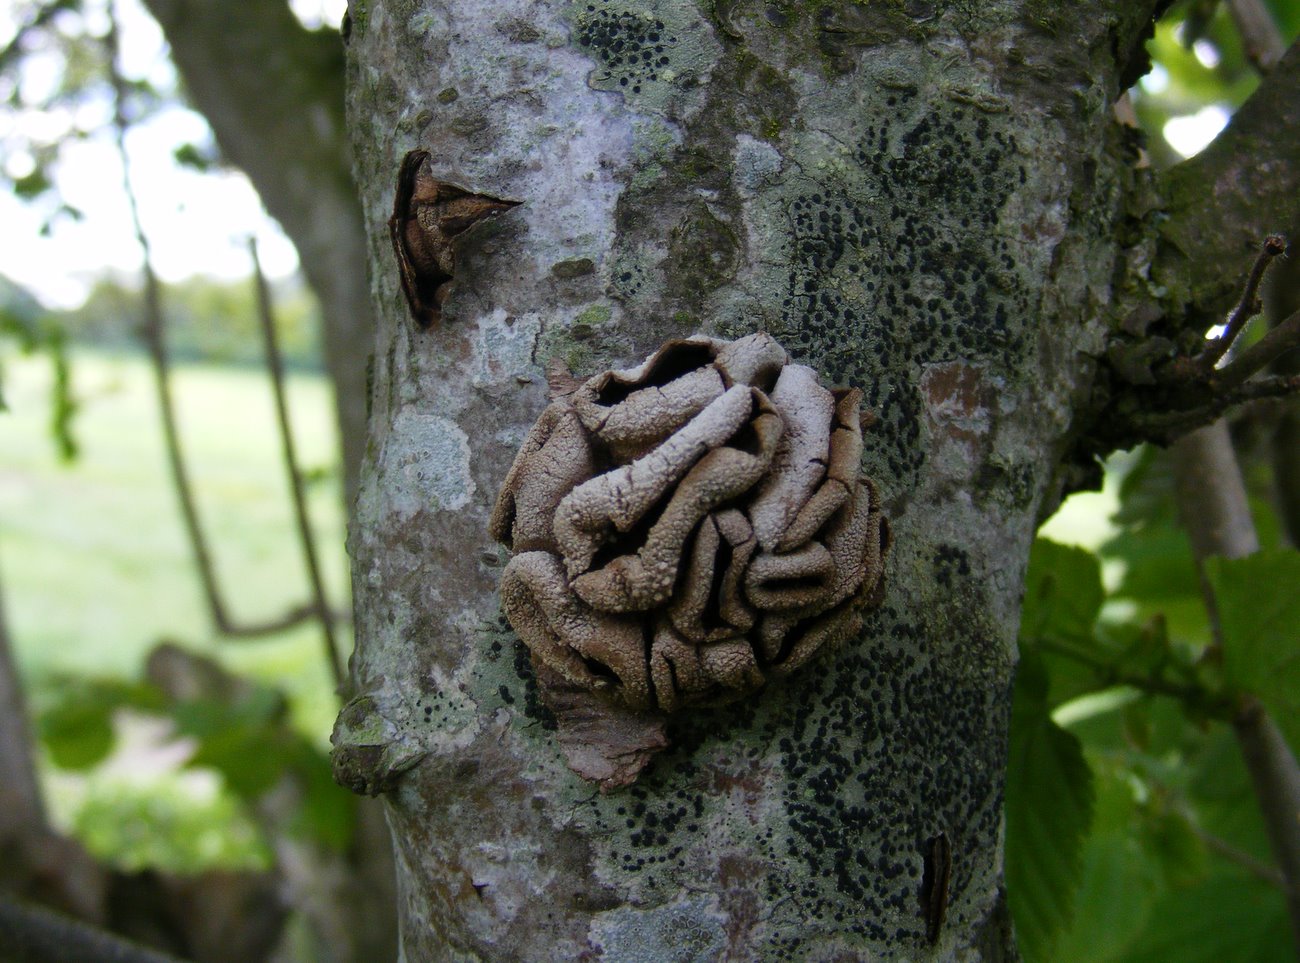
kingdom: Fungi
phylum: Ascomycota
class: Leotiomycetes
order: Helotiales
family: Cenangiaceae
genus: Encoelia
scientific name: Encoelia furfuracea
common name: hassel-læderskive
